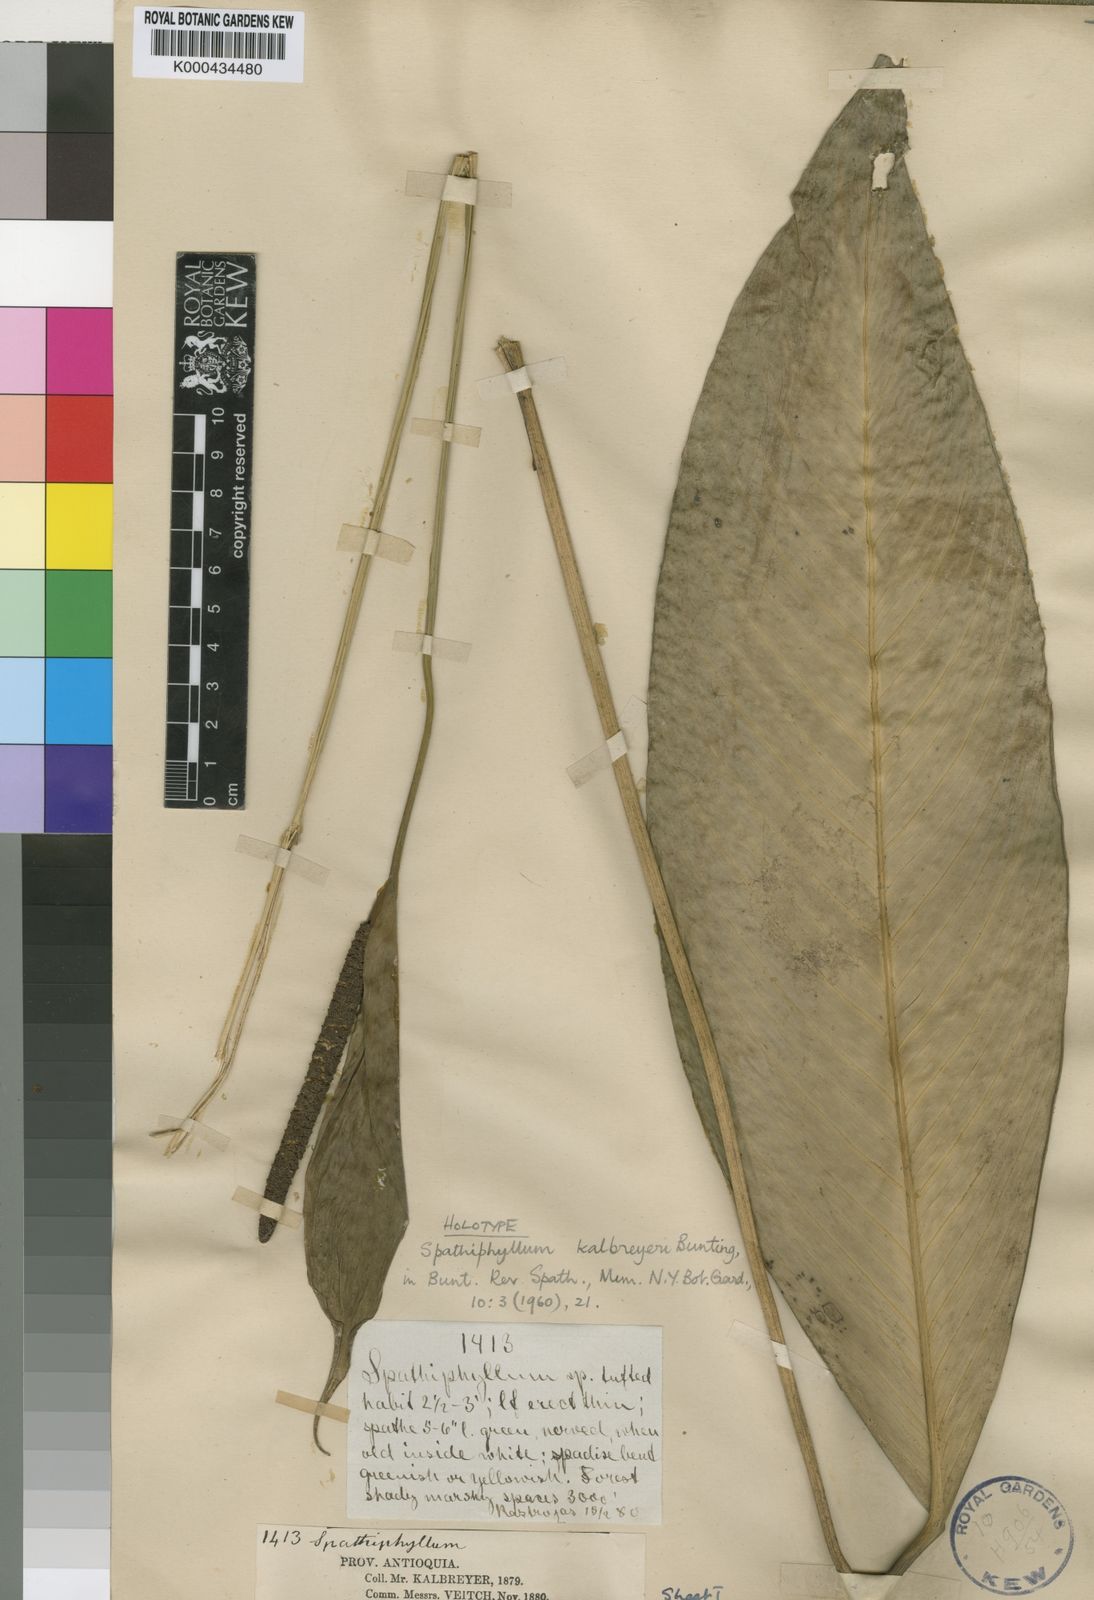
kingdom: Plantae
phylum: Tracheophyta
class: Liliopsida
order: Alismatales
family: Araceae
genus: Spathiphyllum
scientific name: Spathiphyllum kalbreyeri
